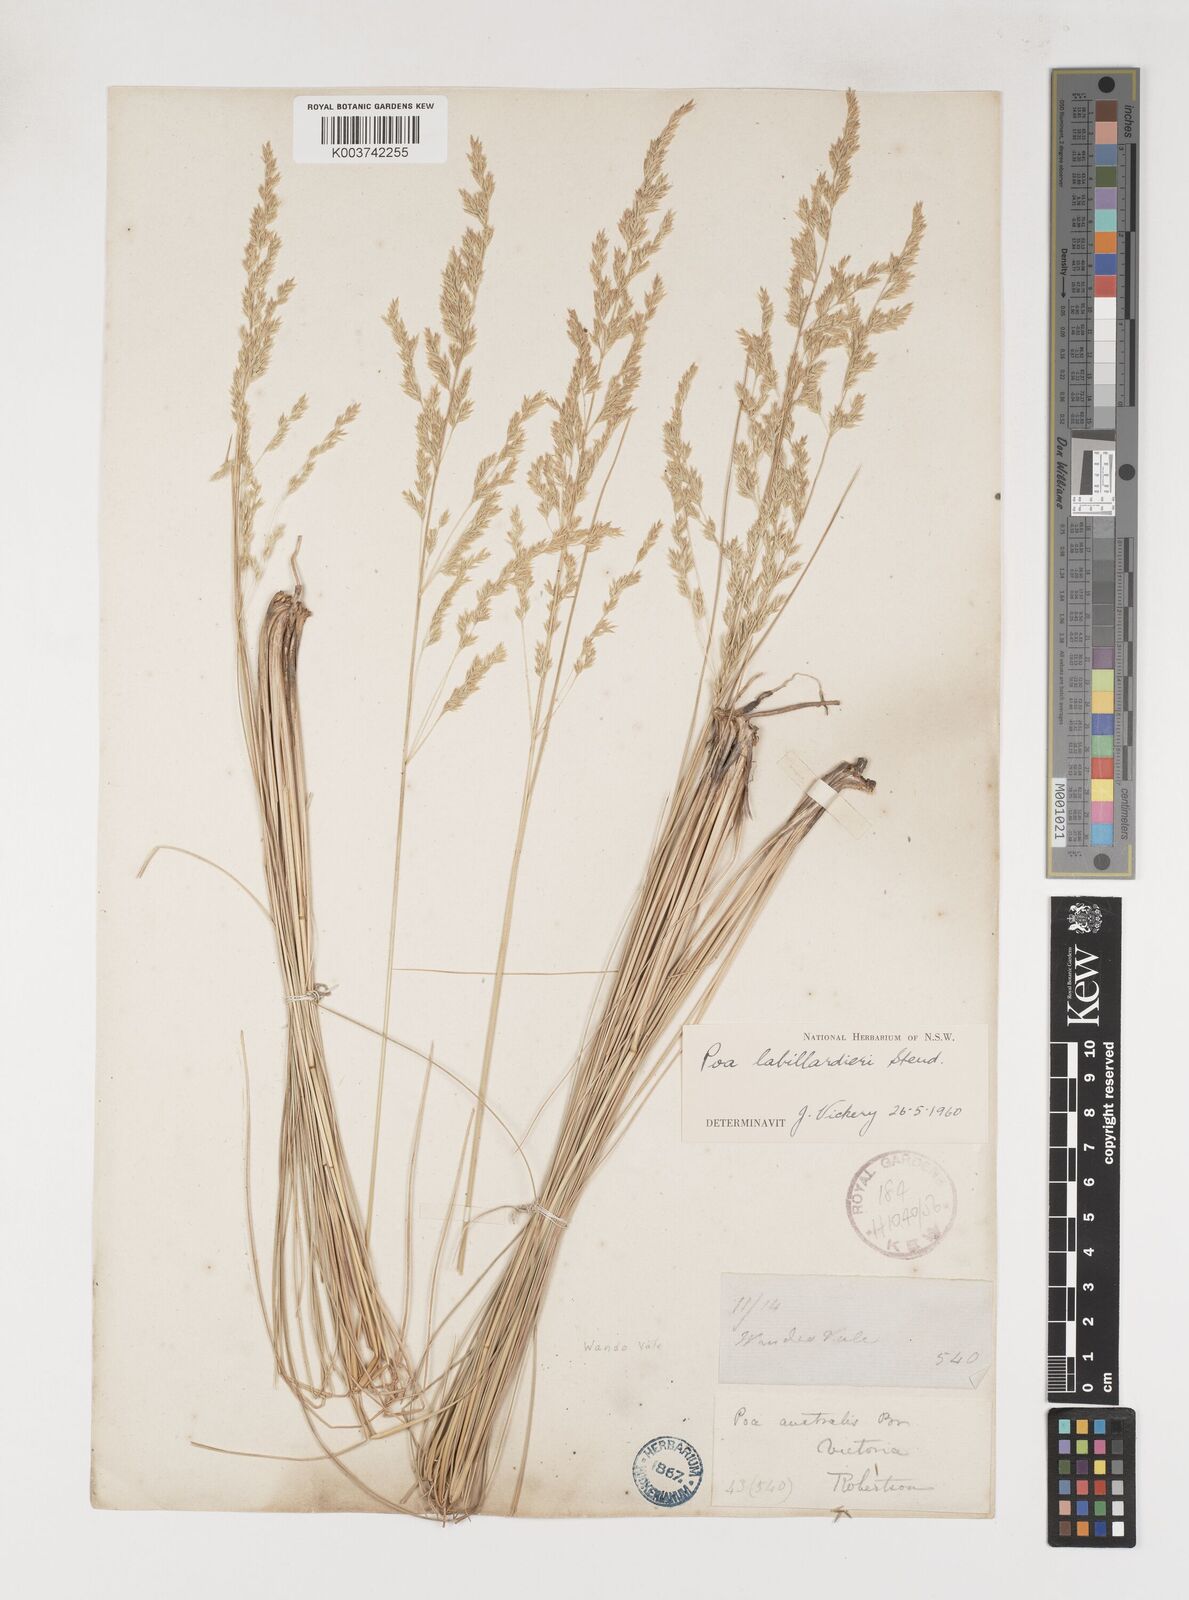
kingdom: Plantae
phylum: Tracheophyta
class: Liliopsida
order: Poales
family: Poaceae
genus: Poa
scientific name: Poa labillardierei
